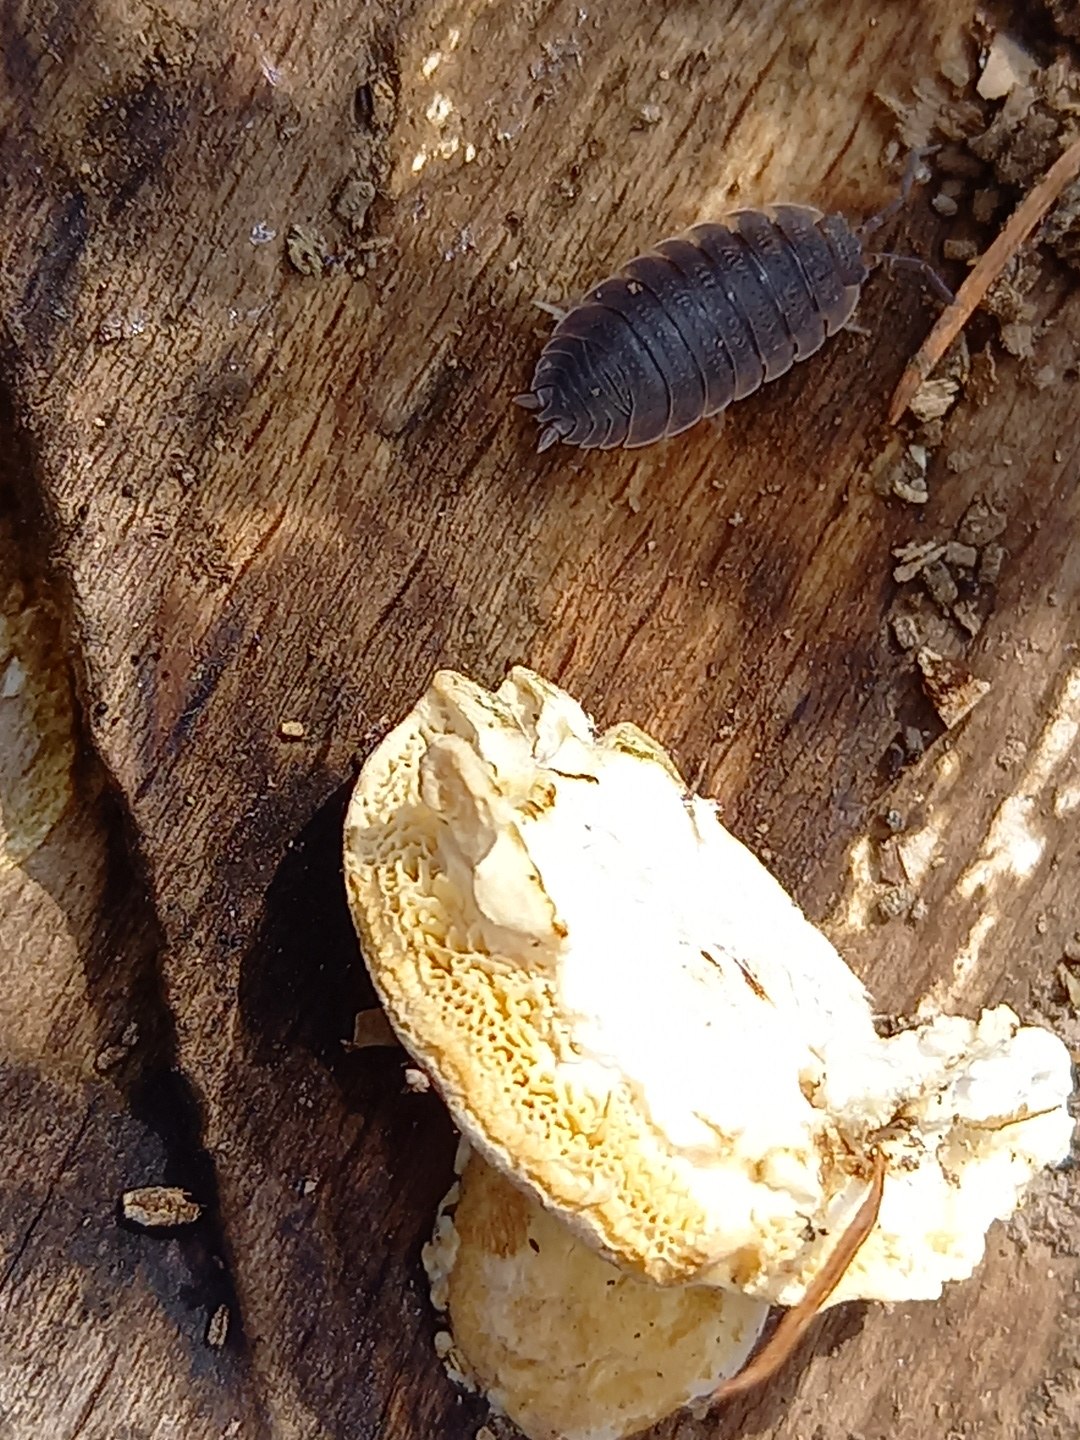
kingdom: Fungi
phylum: Basidiomycota
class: Agaricomycetes
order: Polyporales
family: Polyporaceae
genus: Trametes
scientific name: Trametes
